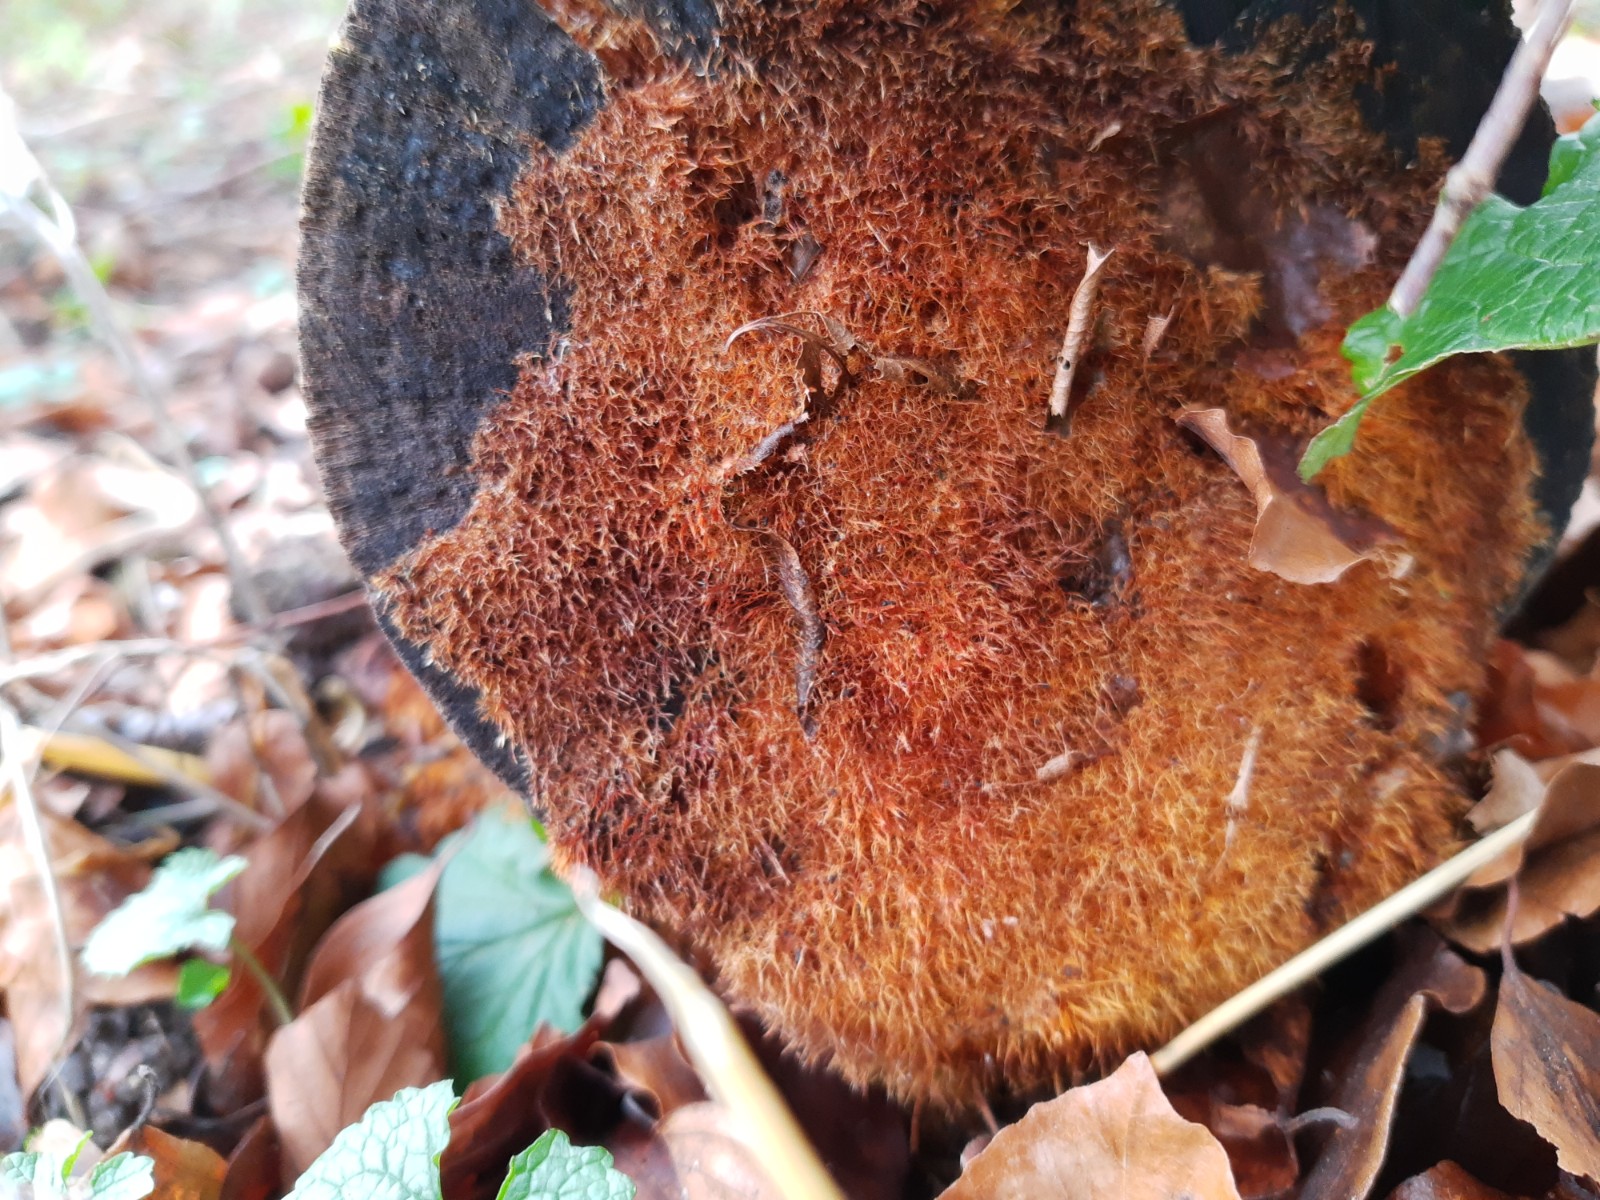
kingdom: Fungi
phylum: Basidiomycota
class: Agaricomycetes
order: Agaricales
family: Psathyrellaceae
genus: Ozonium
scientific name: Ozonium
